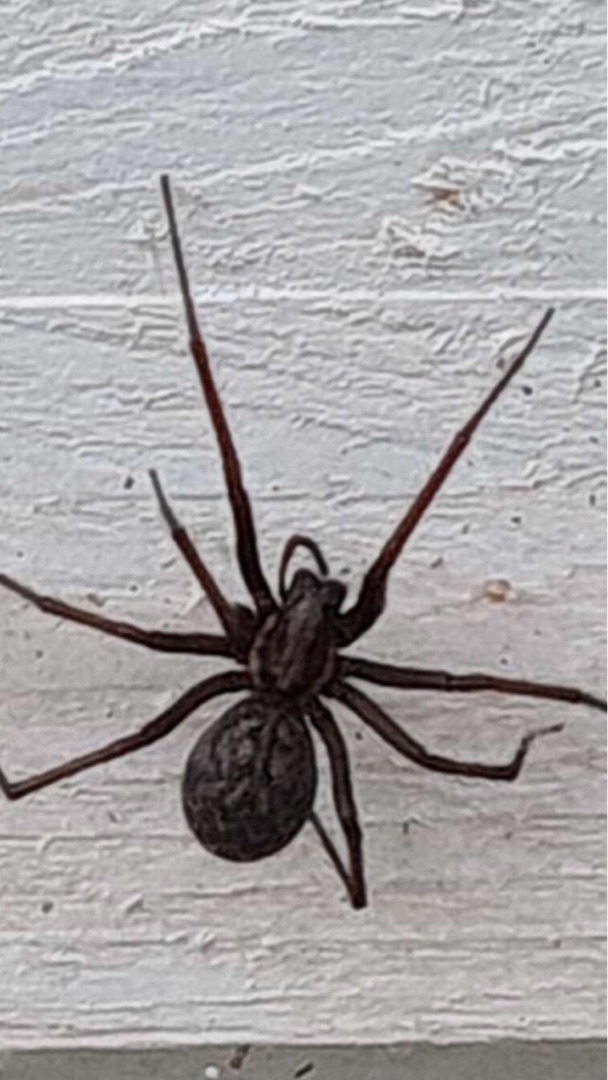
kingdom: Animalia
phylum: Arthropoda
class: Arachnida
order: Araneae
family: Agelenidae
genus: Eratigena
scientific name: Eratigena atrica
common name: Stor husedderkop
